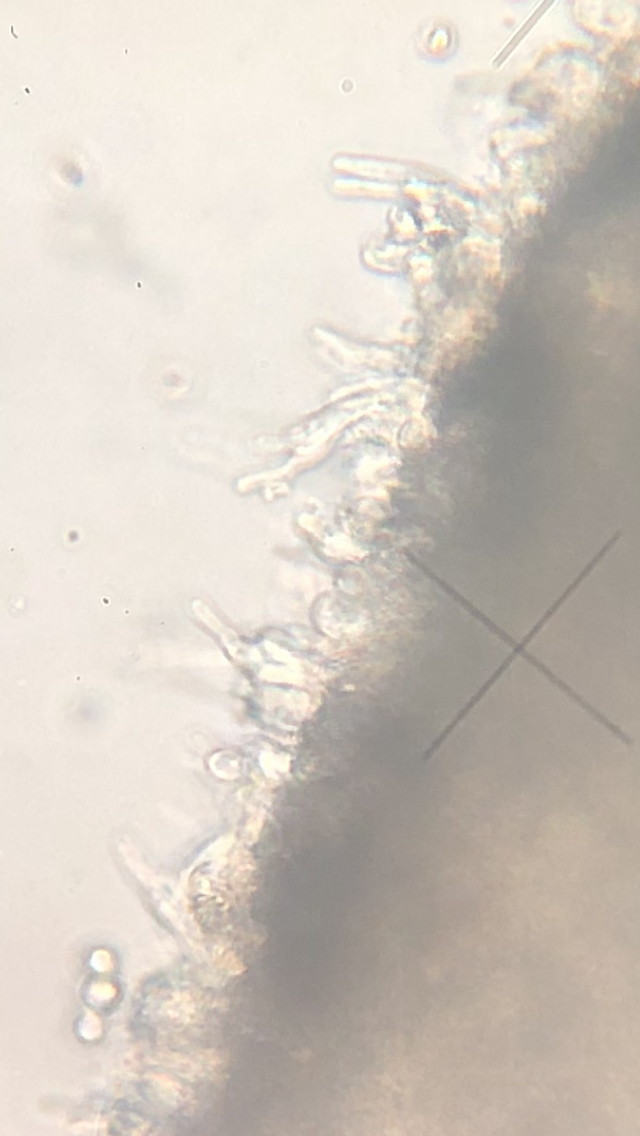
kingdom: Fungi
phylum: Basidiomycota
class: Agaricomycetes
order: Agaricales
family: Entolomataceae
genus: Clitopilus
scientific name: Clitopilus geminus
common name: kødfarvet troldhat
